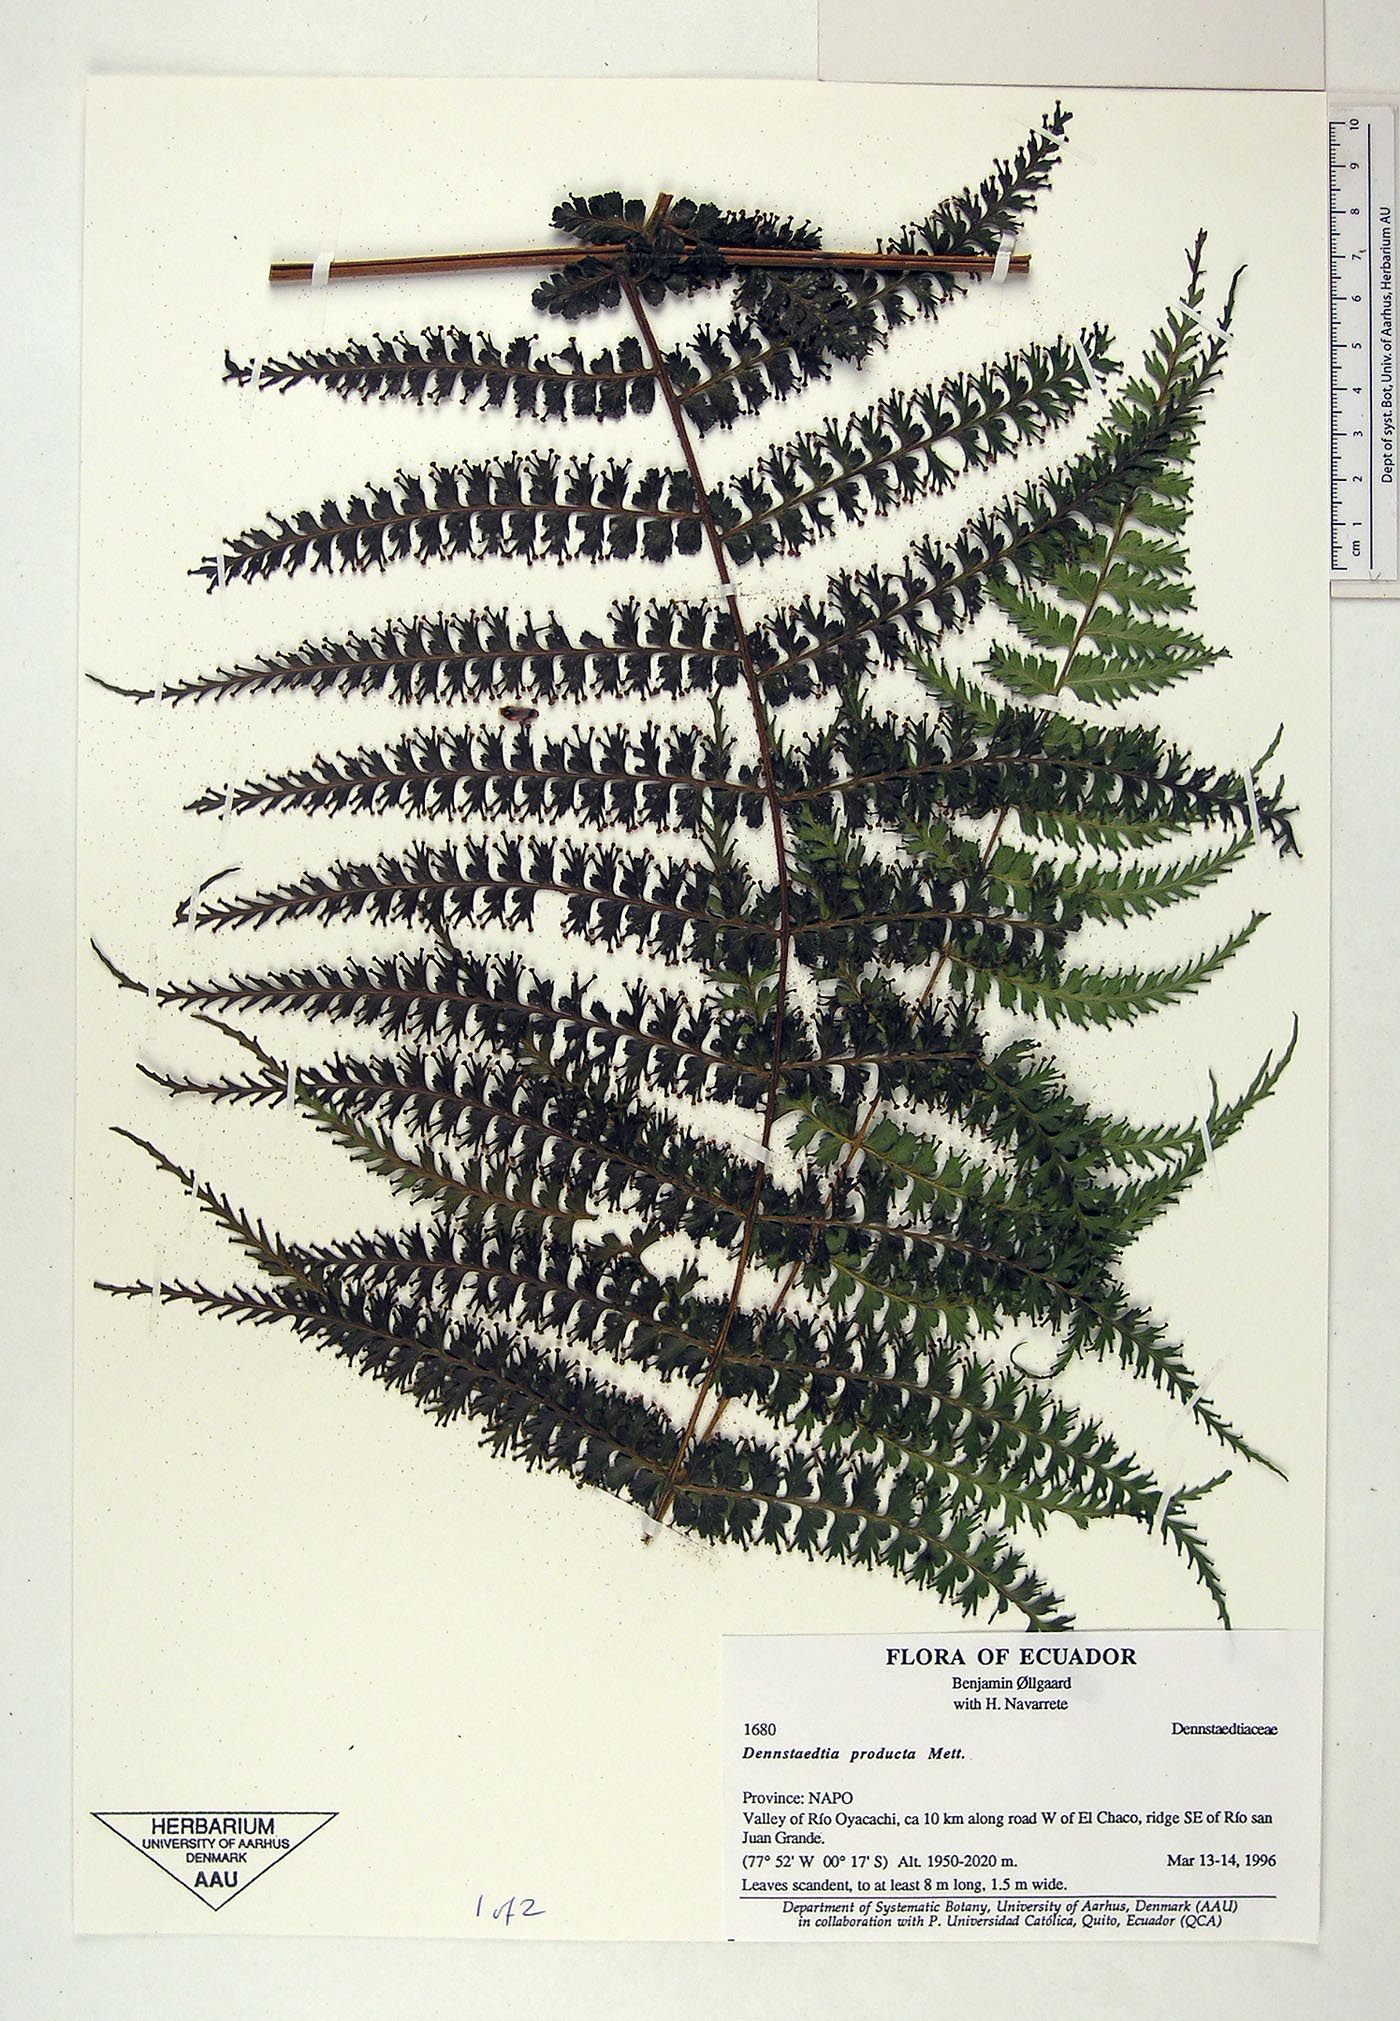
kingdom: Plantae
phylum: Tracheophyta
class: Polypodiopsida
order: Polypodiales
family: Dennstaedtiaceae
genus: Dennstaedtia
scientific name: Dennstaedtia producta
